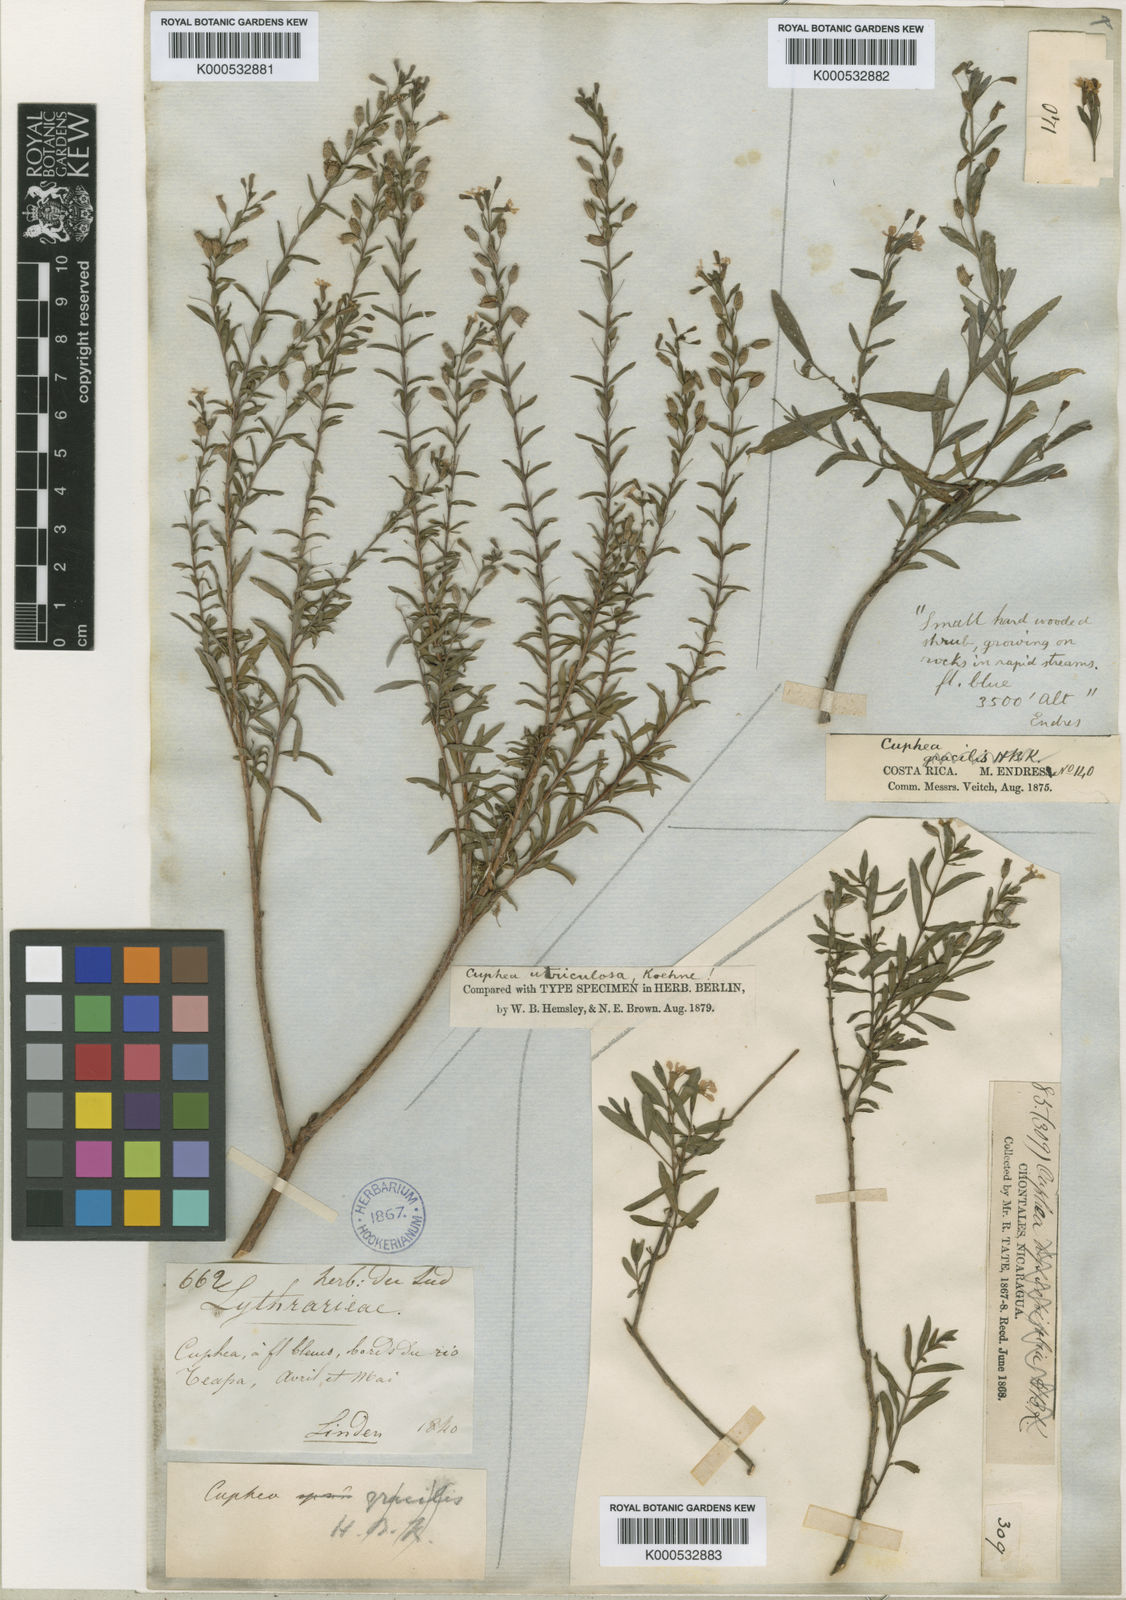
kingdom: Plantae
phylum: Tracheophyta
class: Magnoliopsida
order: Myrtales
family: Lythraceae
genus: Cuphea
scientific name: Cuphea utriculosa
